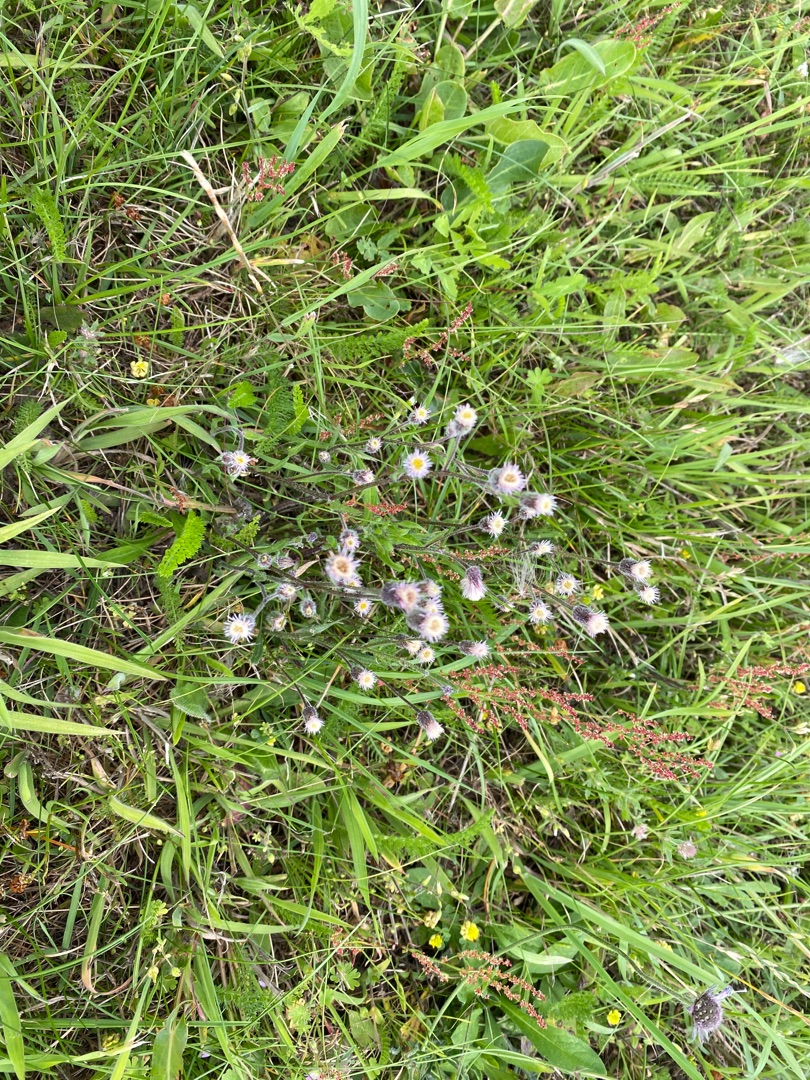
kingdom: Plantae
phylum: Tracheophyta
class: Magnoliopsida
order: Asterales
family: Asteraceae
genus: Erigeron
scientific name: Erigeron acris
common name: Bitter bakkestjerne
